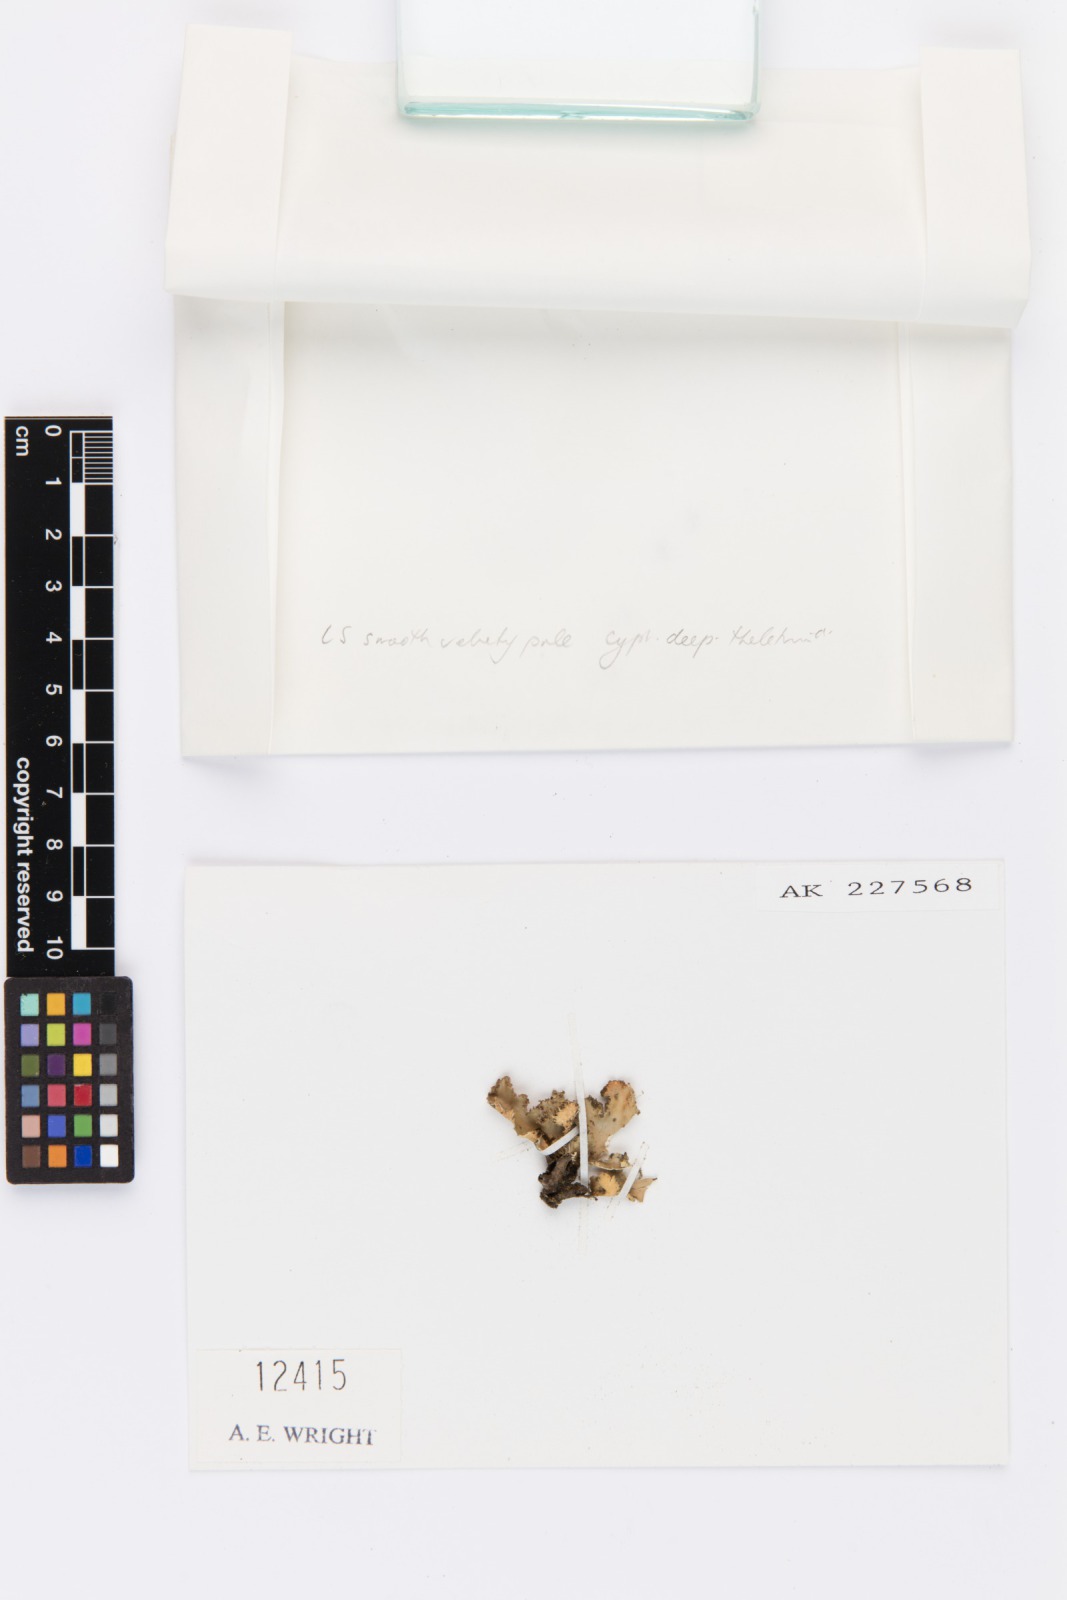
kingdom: Fungi
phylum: Ascomycota
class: Lecanoromycetes
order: Peltigerales
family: Lobariaceae
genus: Sticta
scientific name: Sticta brevipes
